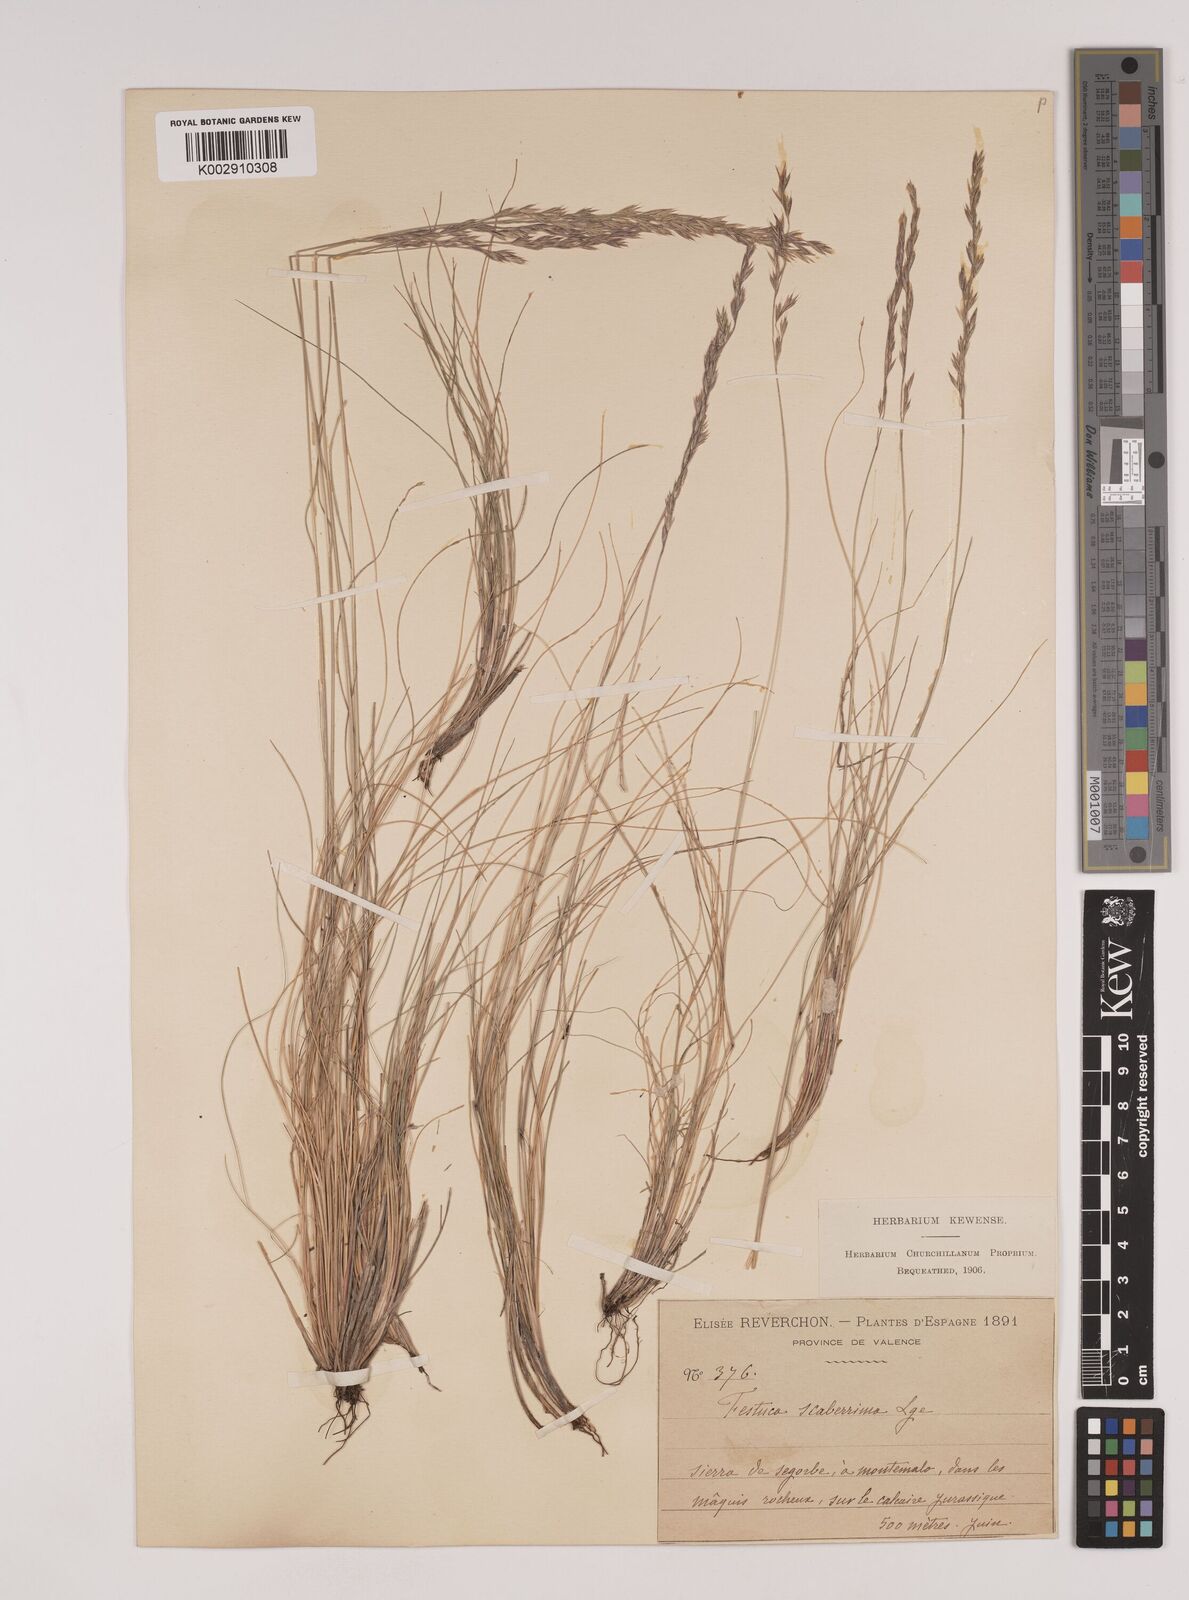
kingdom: Plantae
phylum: Tracheophyta
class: Liliopsida
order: Poales
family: Poaceae
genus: Festuca
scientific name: Festuca capillifolia
